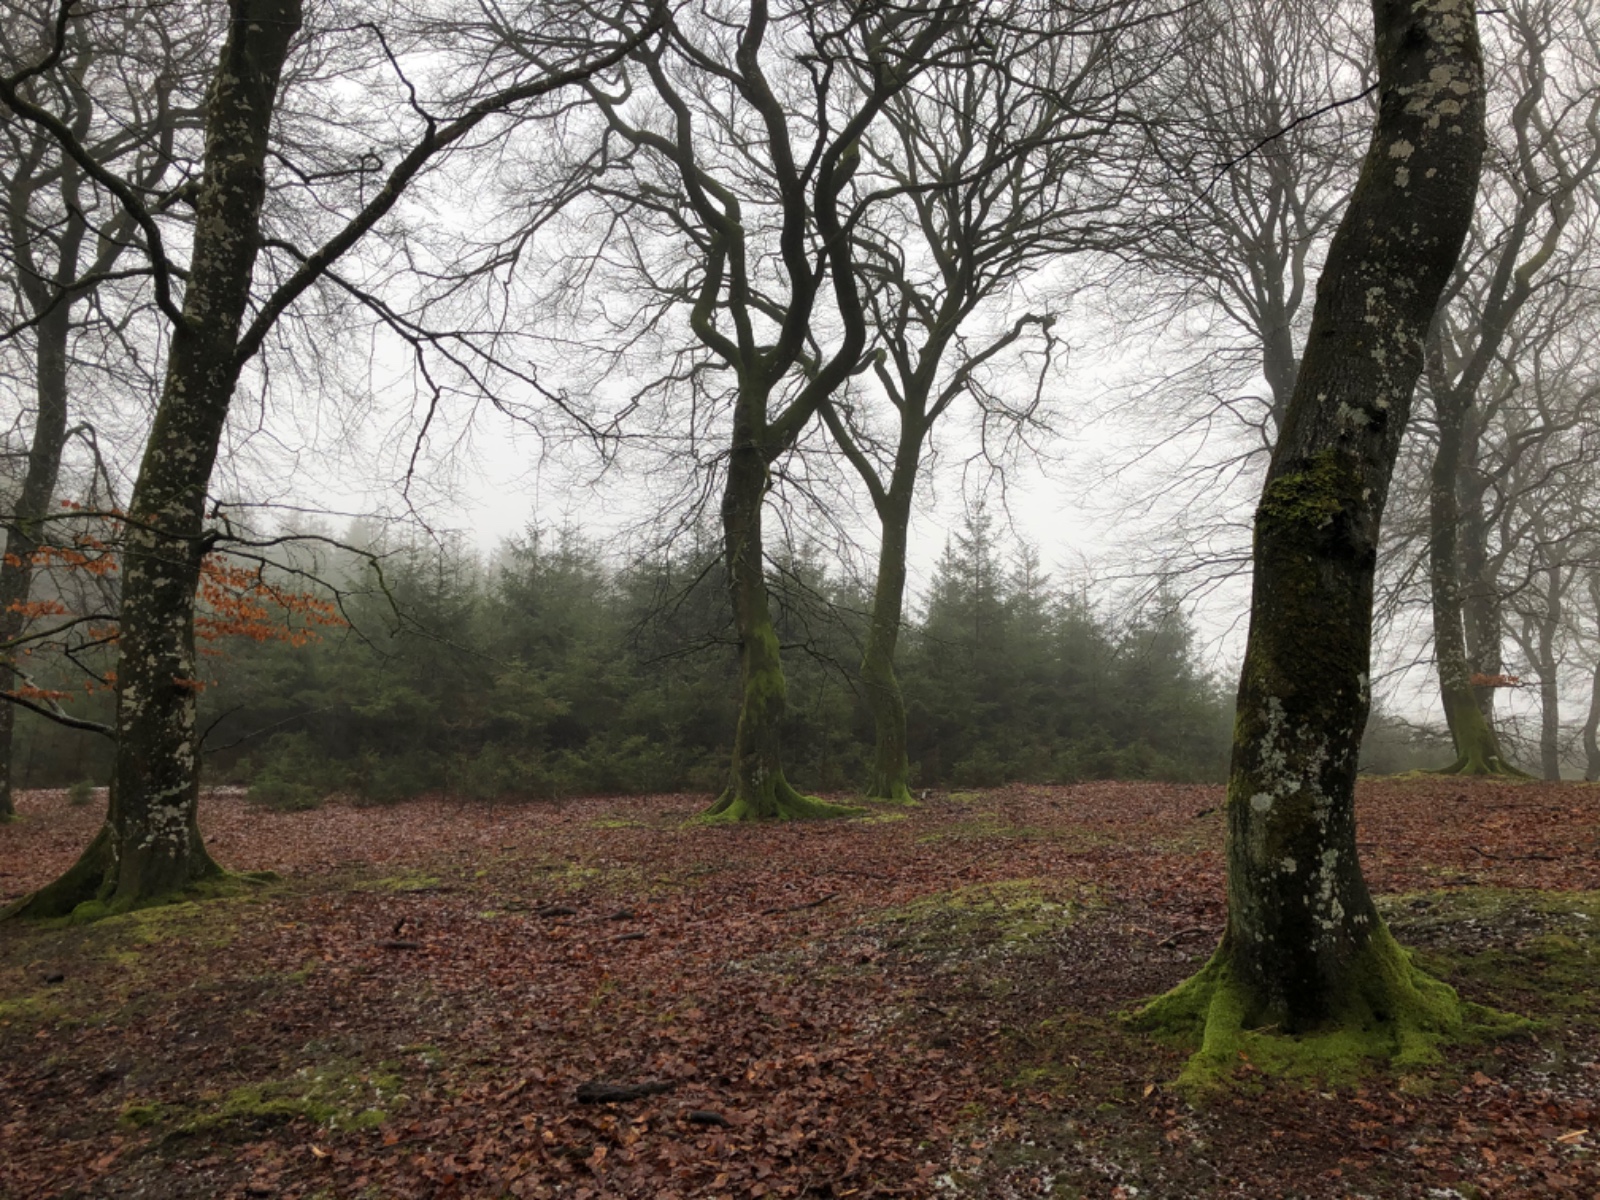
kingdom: Fungi
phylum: Ascomycota
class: Lecanoromycetes
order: Peltigerales
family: Lobariaceae
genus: Lobaria
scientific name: Lobaria pulmonaria
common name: almindelig lungelav
